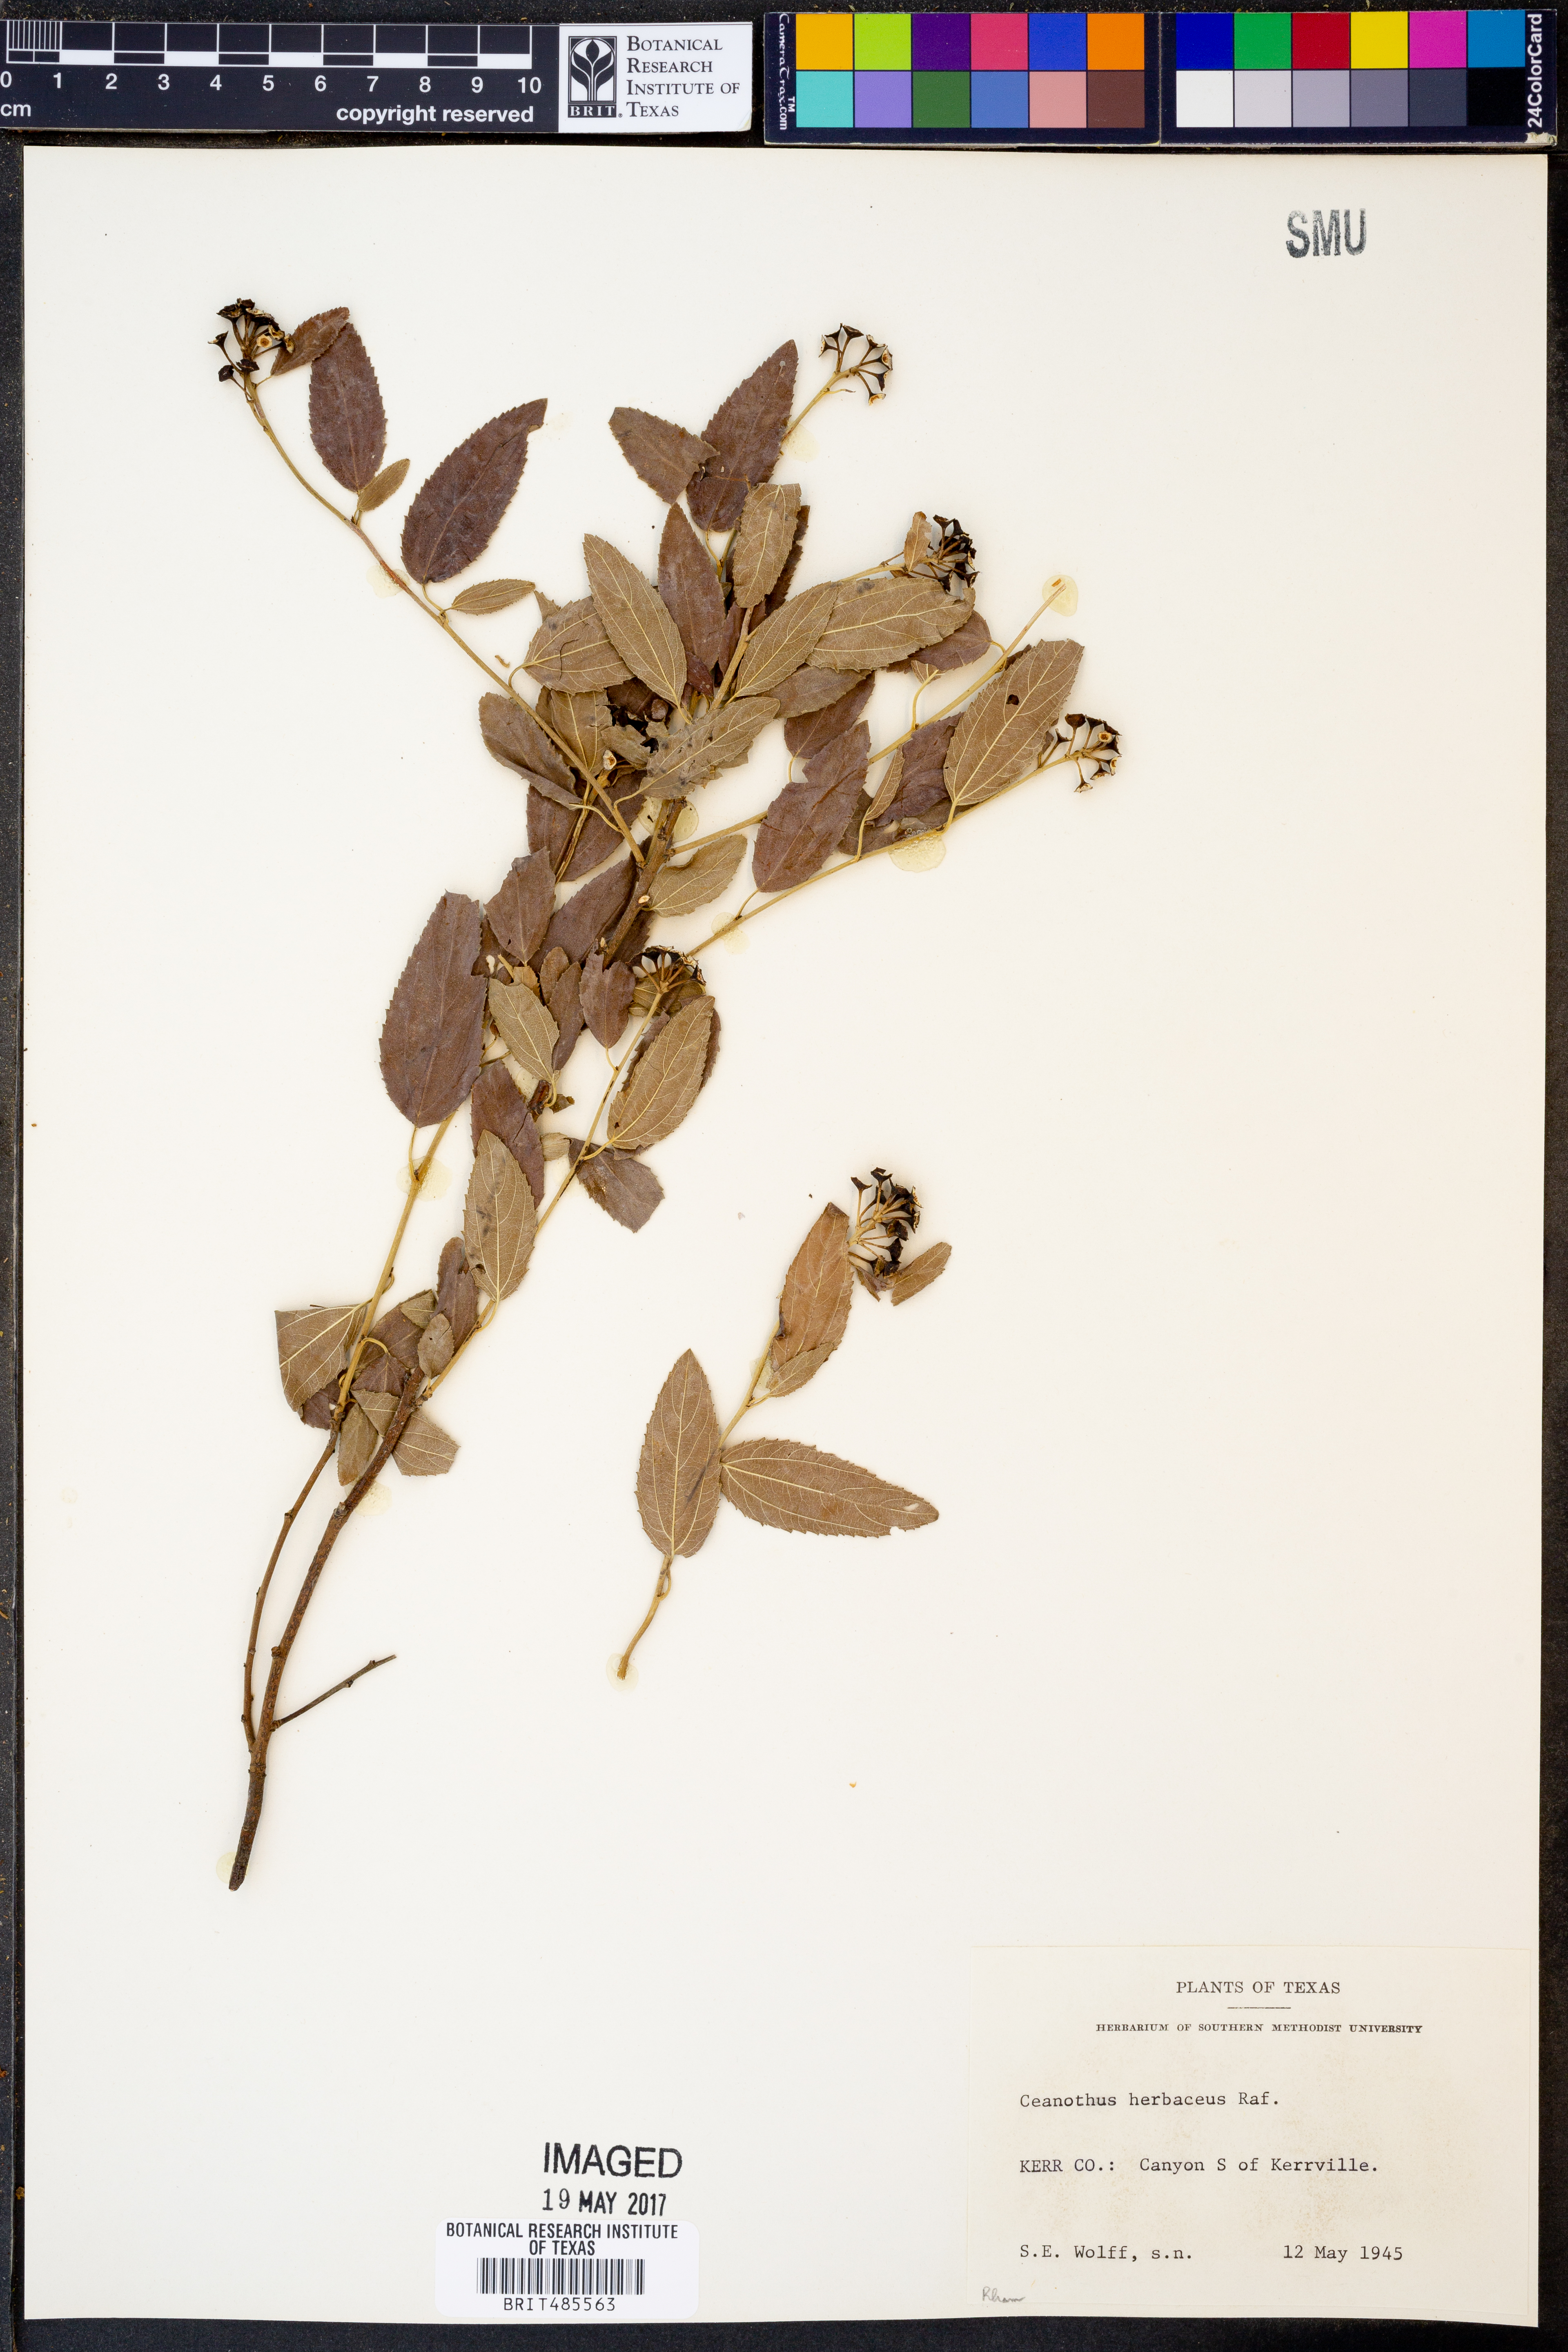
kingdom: Plantae
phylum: Tracheophyta
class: Magnoliopsida
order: Rosales
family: Rhamnaceae
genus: Ceanothus
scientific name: Ceanothus herbaceus
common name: Inland ceanothus
